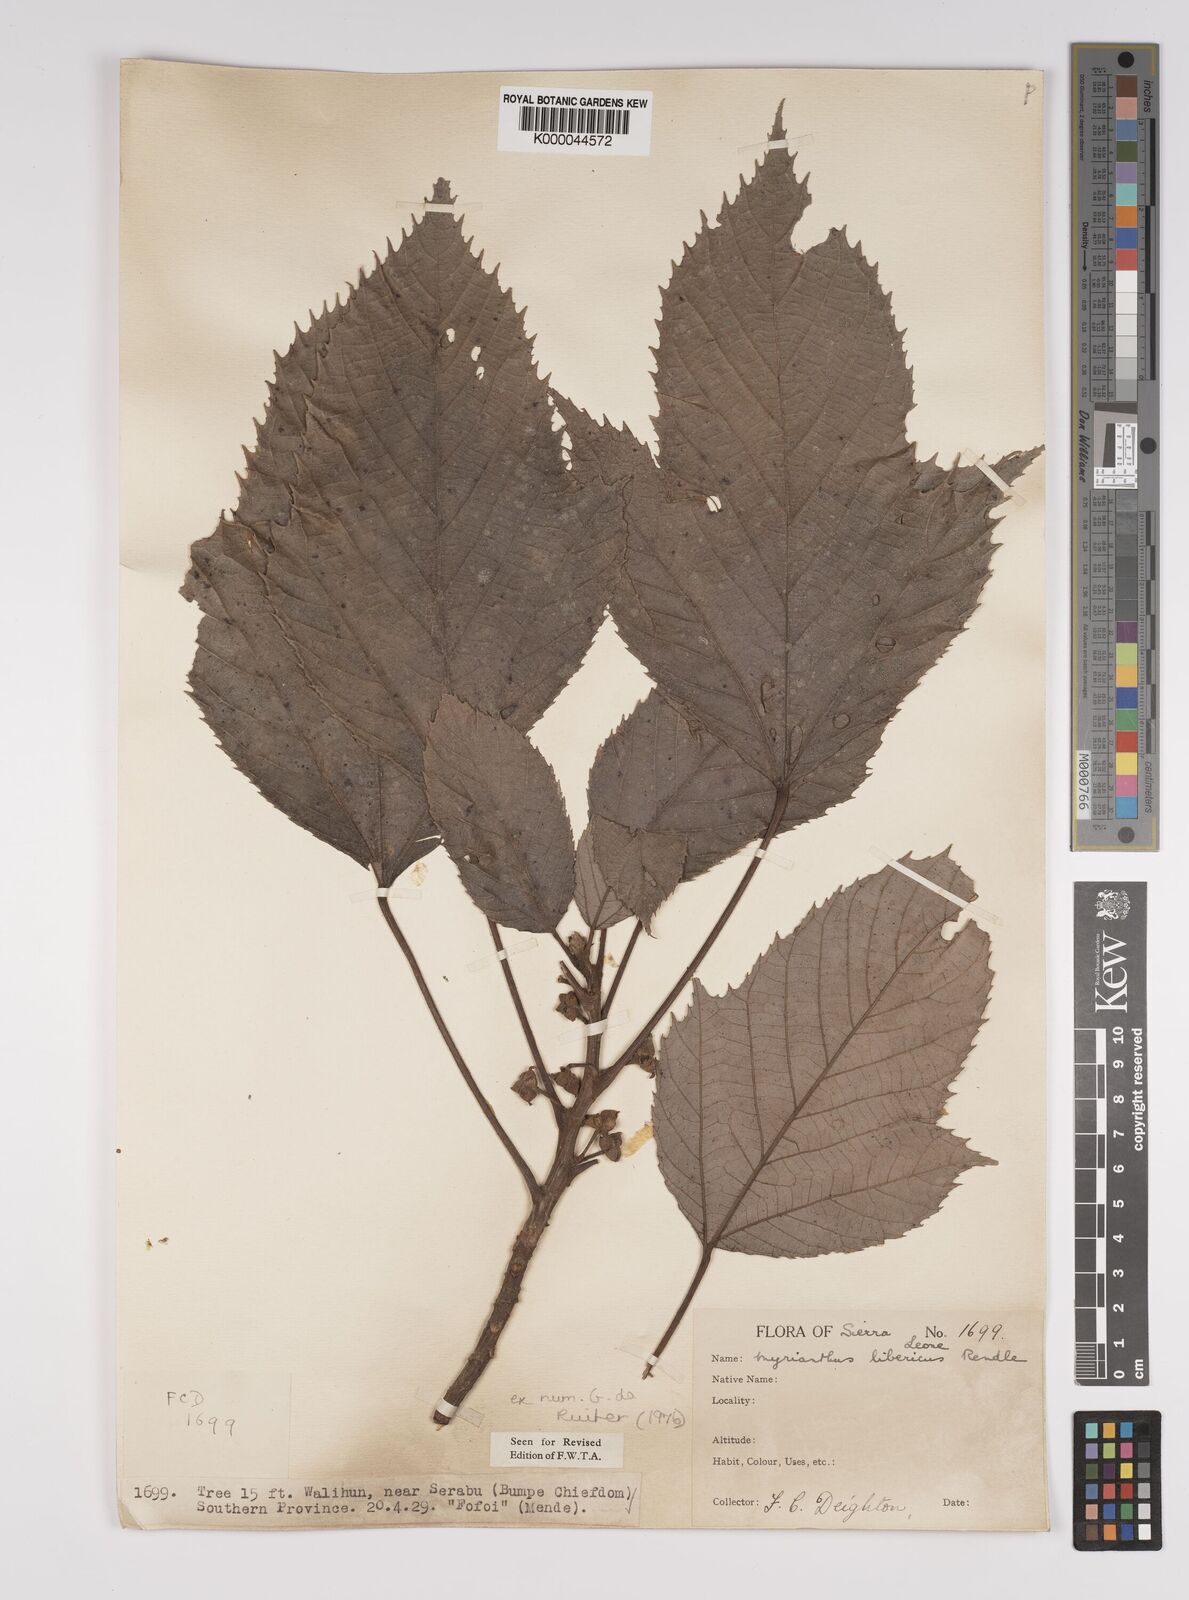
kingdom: Plantae
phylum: Tracheophyta
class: Magnoliopsida
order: Rosales
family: Urticaceae
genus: Myrianthus
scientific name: Myrianthus libericus
